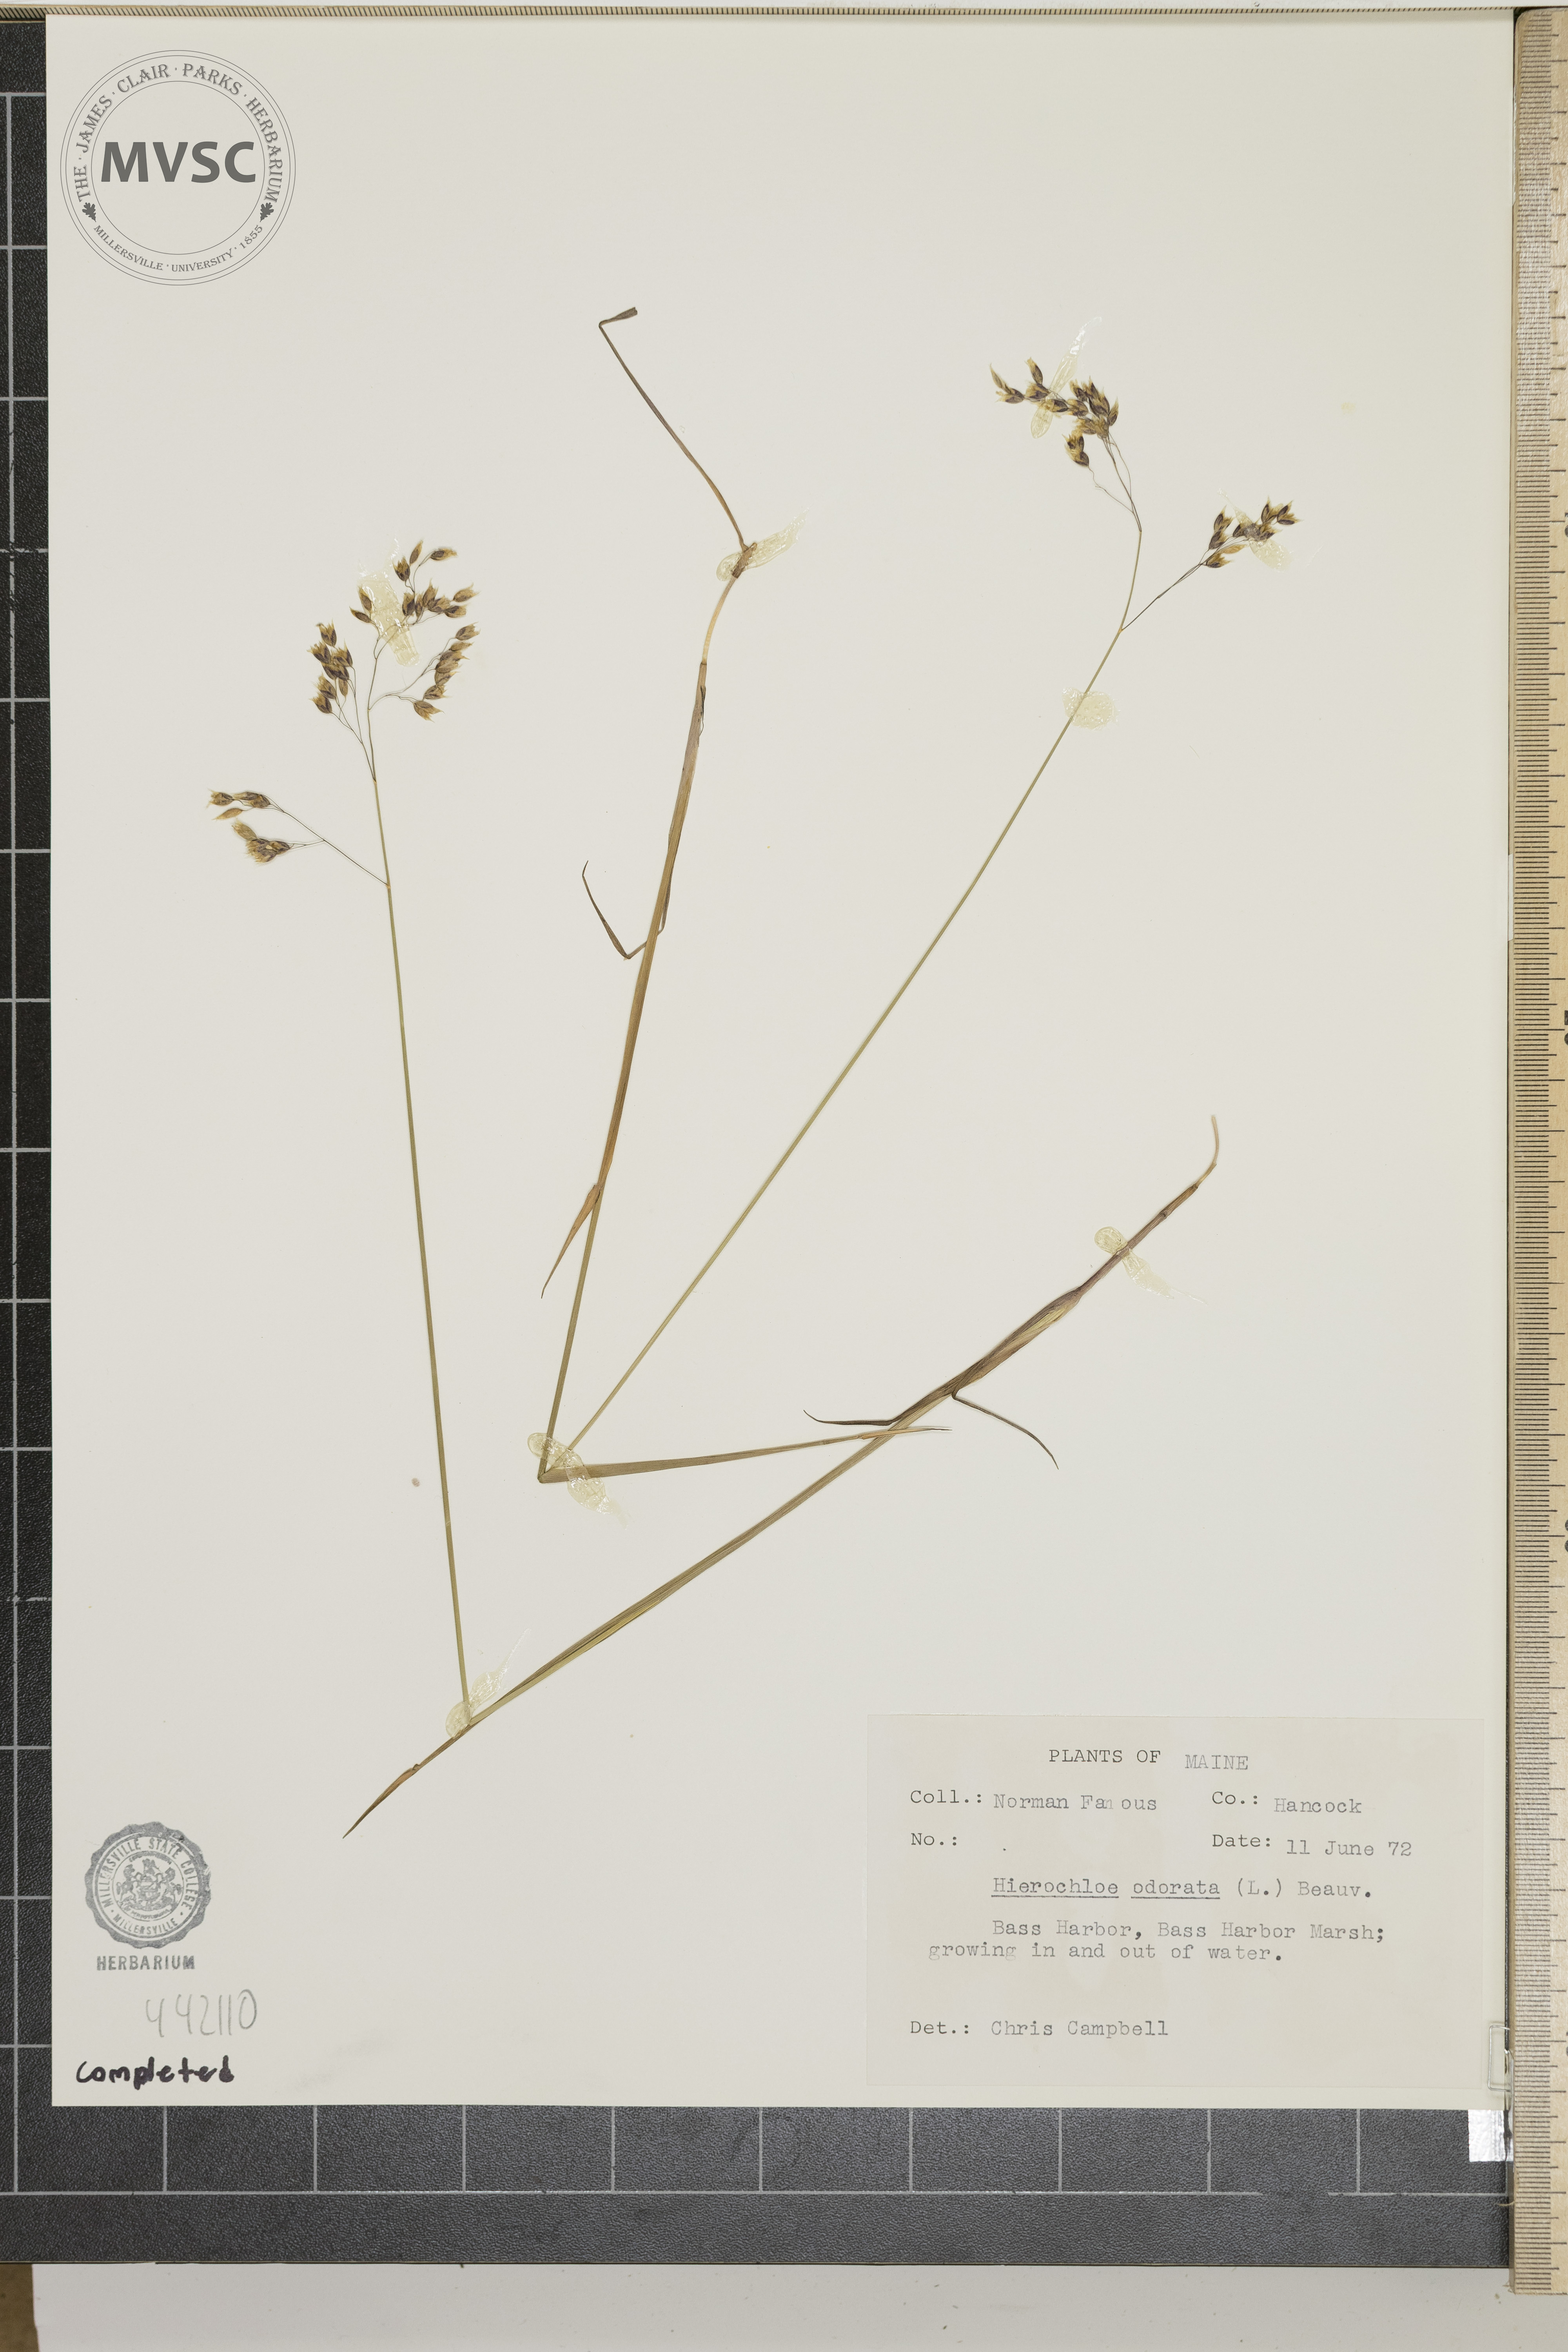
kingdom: Plantae
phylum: Tracheophyta
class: Liliopsida
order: Poales
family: Poaceae
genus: Anthoxanthum
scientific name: Anthoxanthum nitens
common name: Holy grass
